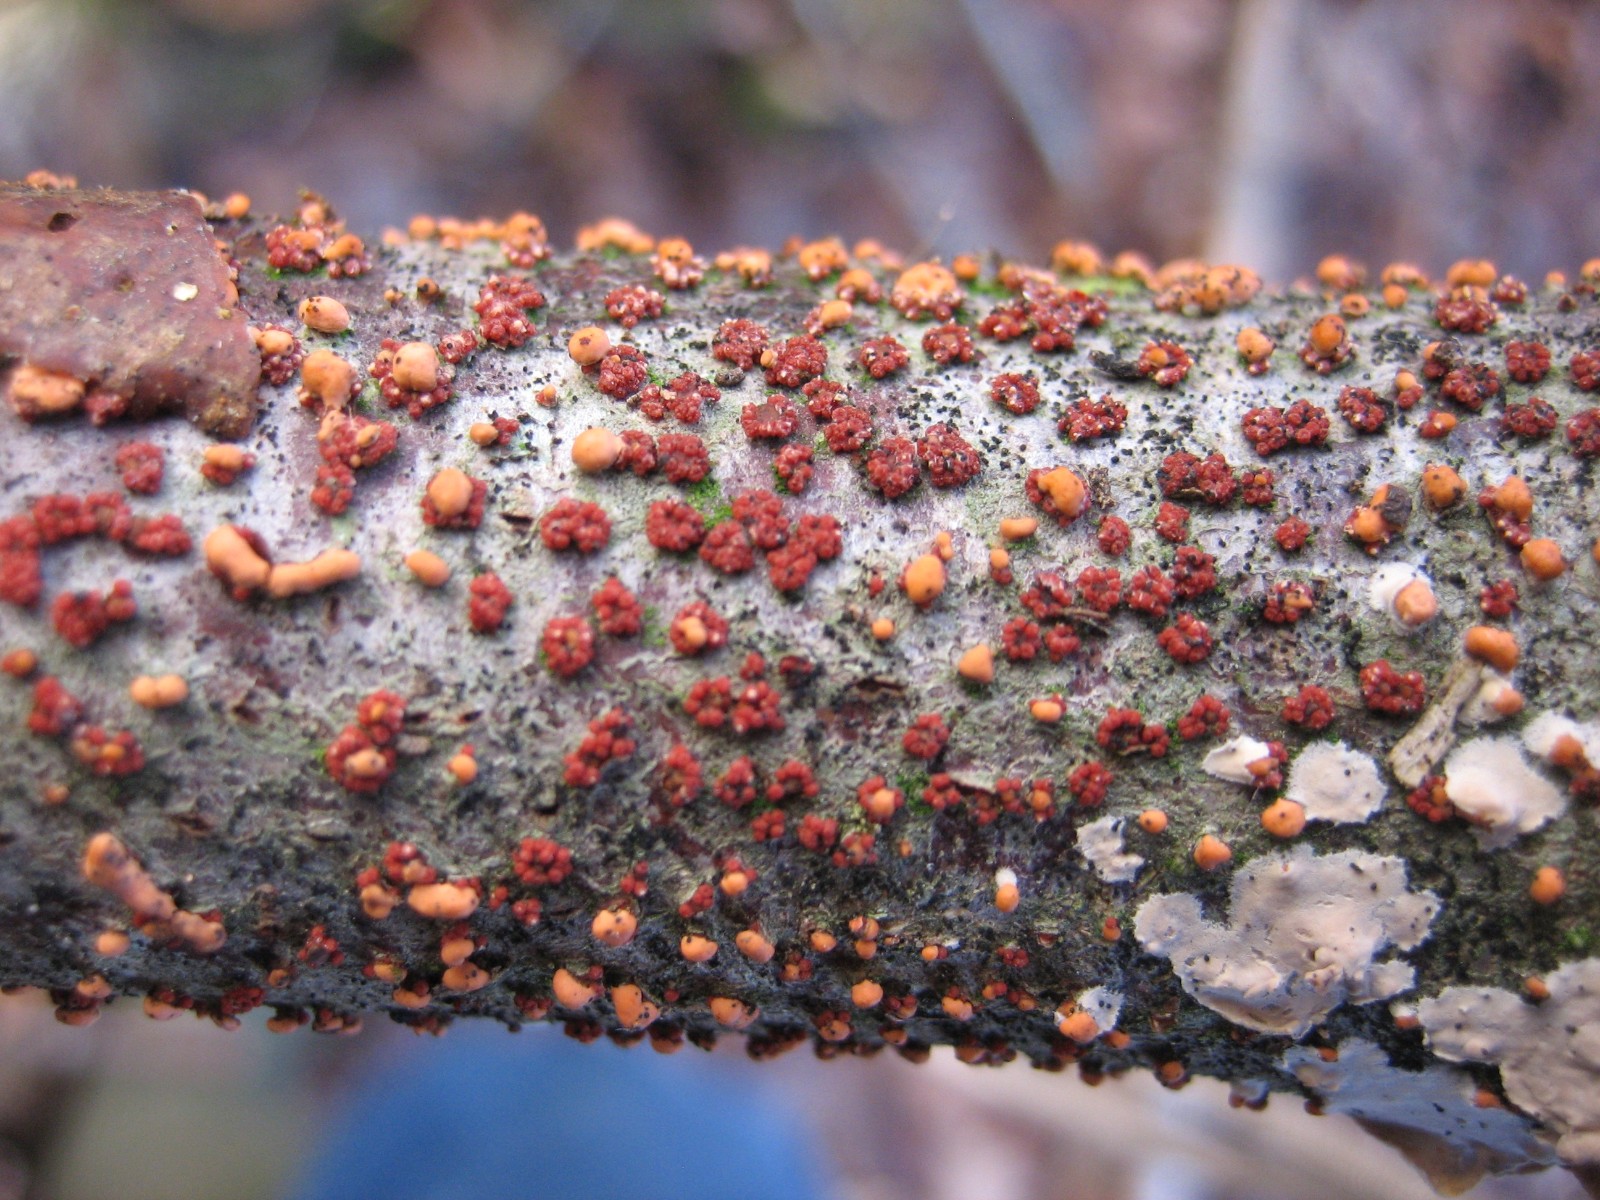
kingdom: Fungi
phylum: Ascomycota
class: Sordariomycetes
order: Hypocreales
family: Nectriaceae
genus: Nectria
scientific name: Nectria cinnabarina
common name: almindelig cinnobersvamp
